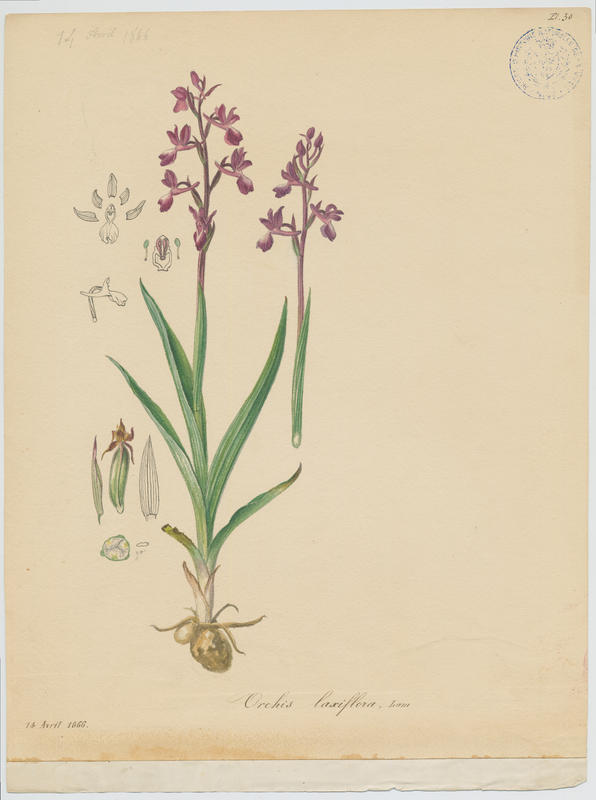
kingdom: Plantae
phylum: Tracheophyta
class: Liliopsida
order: Asparagales
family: Orchidaceae
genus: Anacamptis
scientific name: Anacamptis laxiflora
